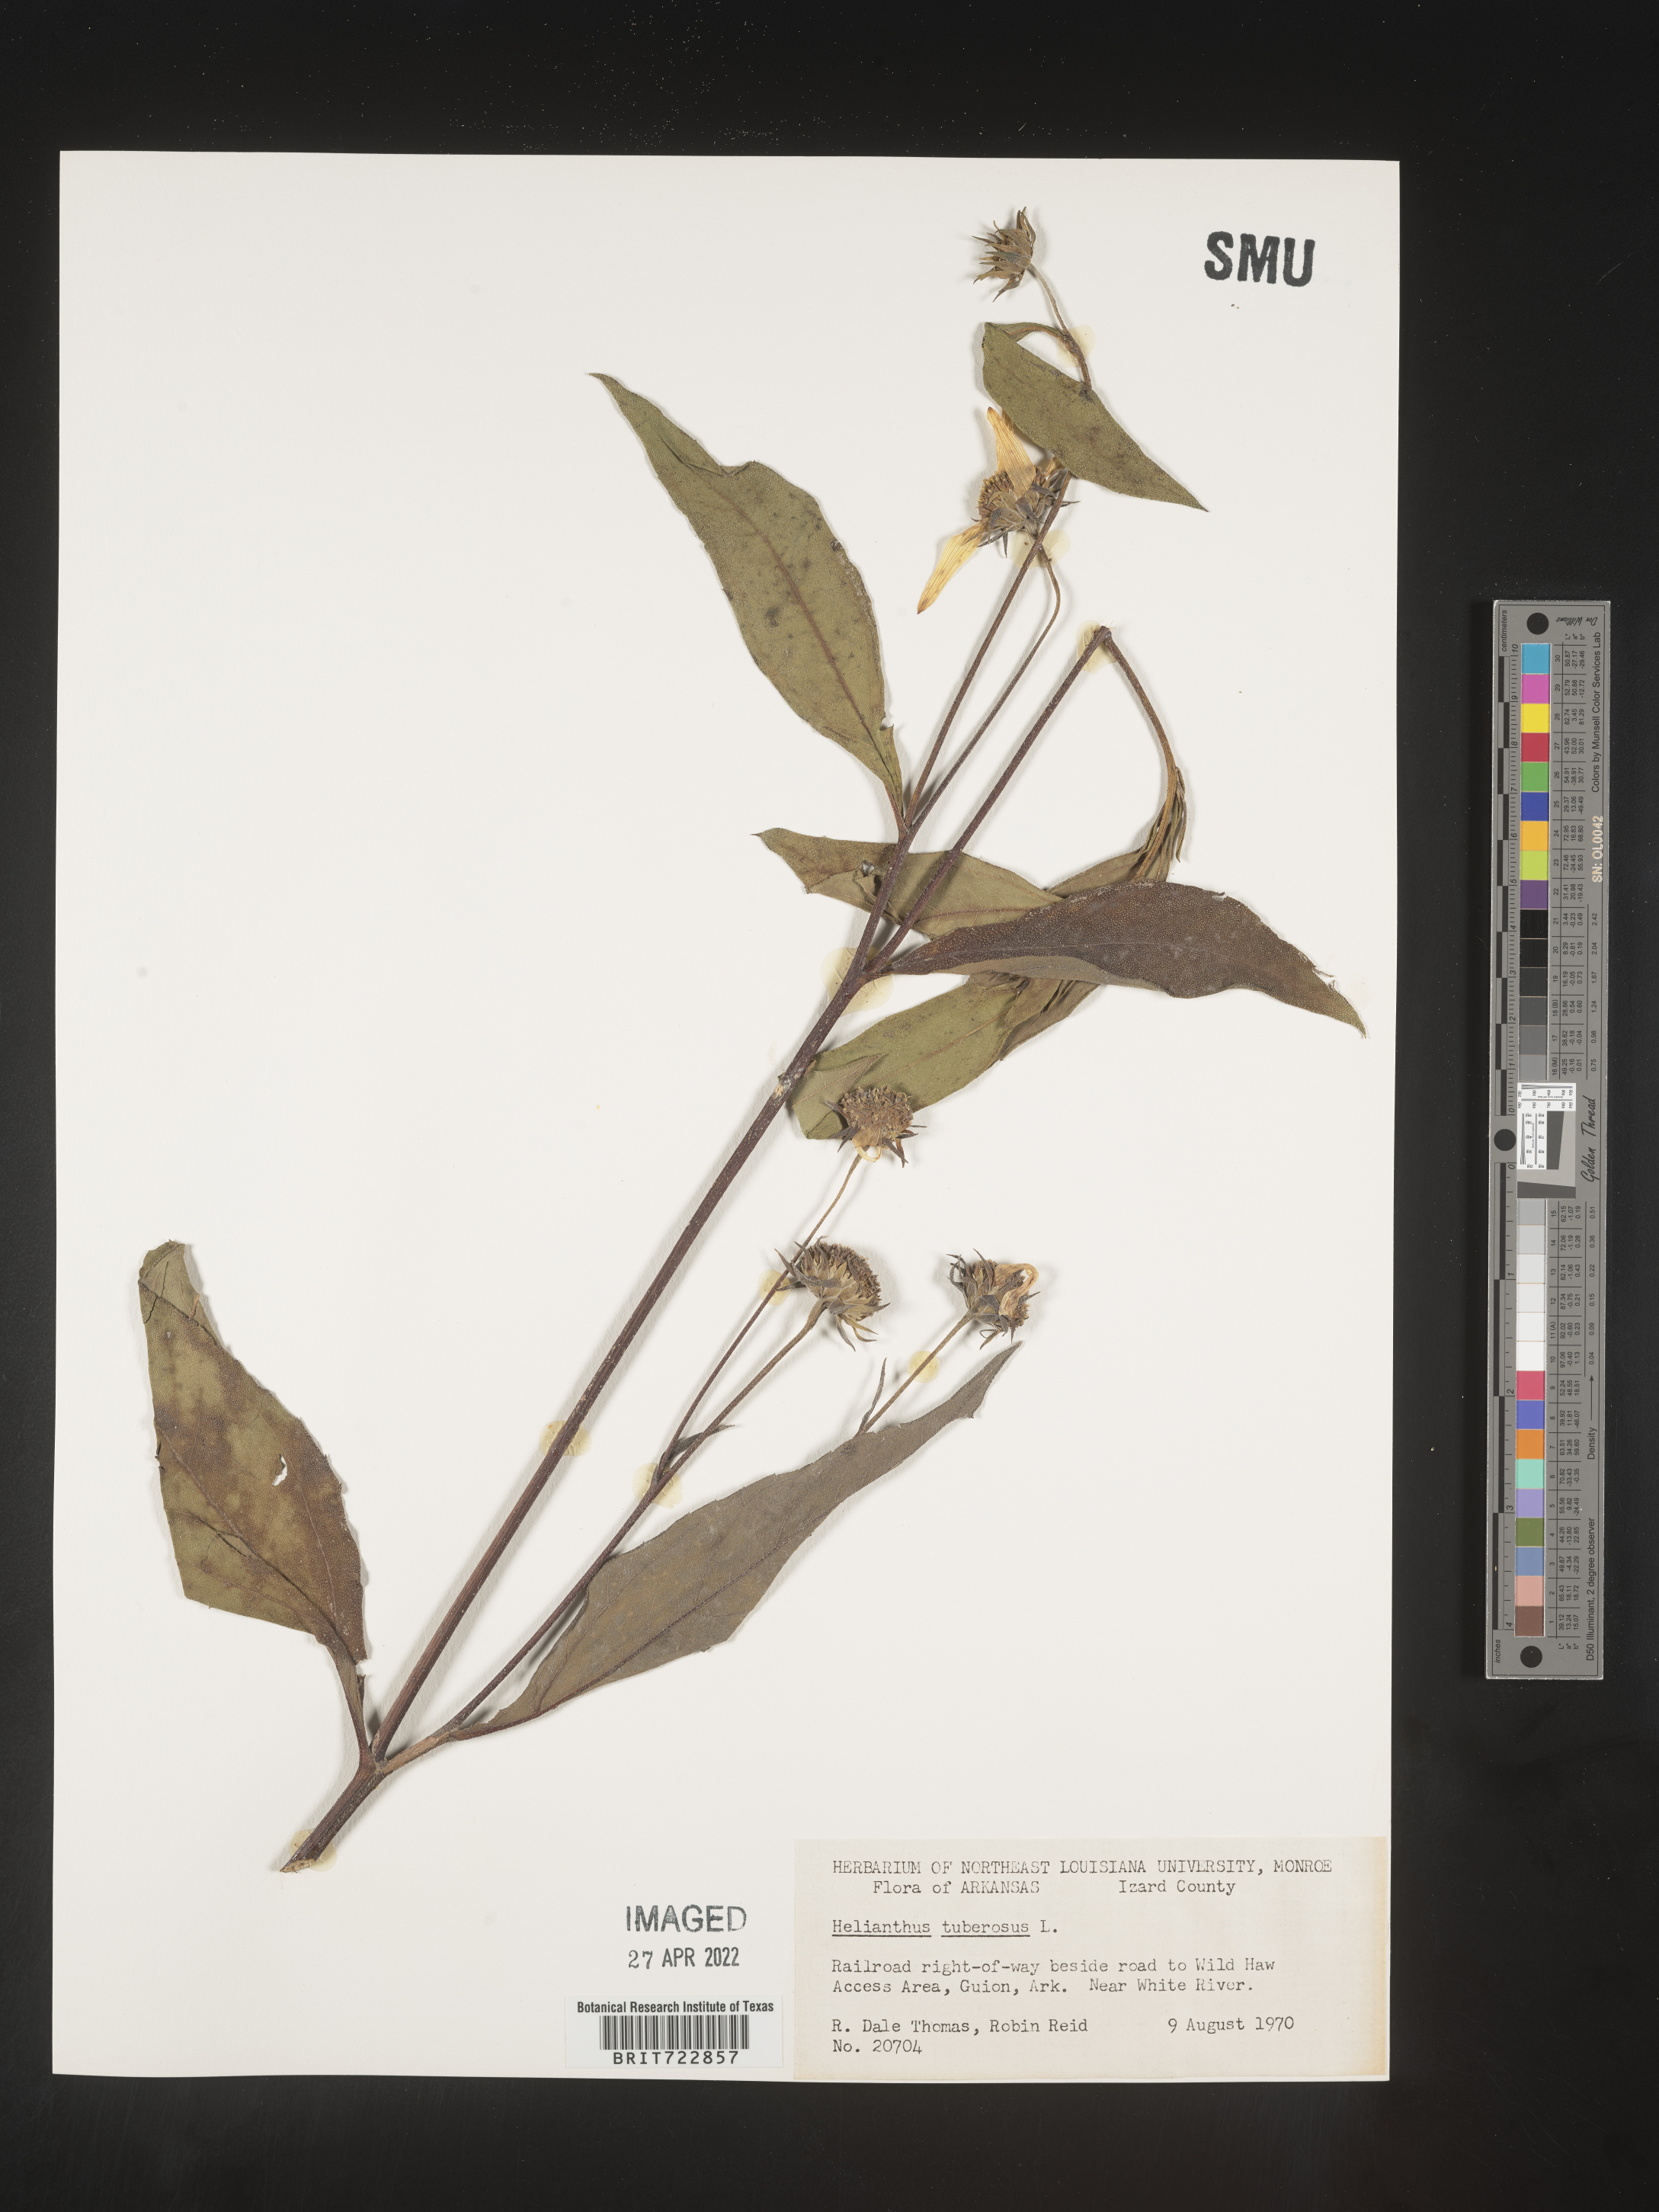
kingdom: Plantae
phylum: Tracheophyta
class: Magnoliopsida
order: Asterales
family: Asteraceae
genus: Helianthus
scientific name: Helianthus tuberosus
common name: Jerusalem artichoke
